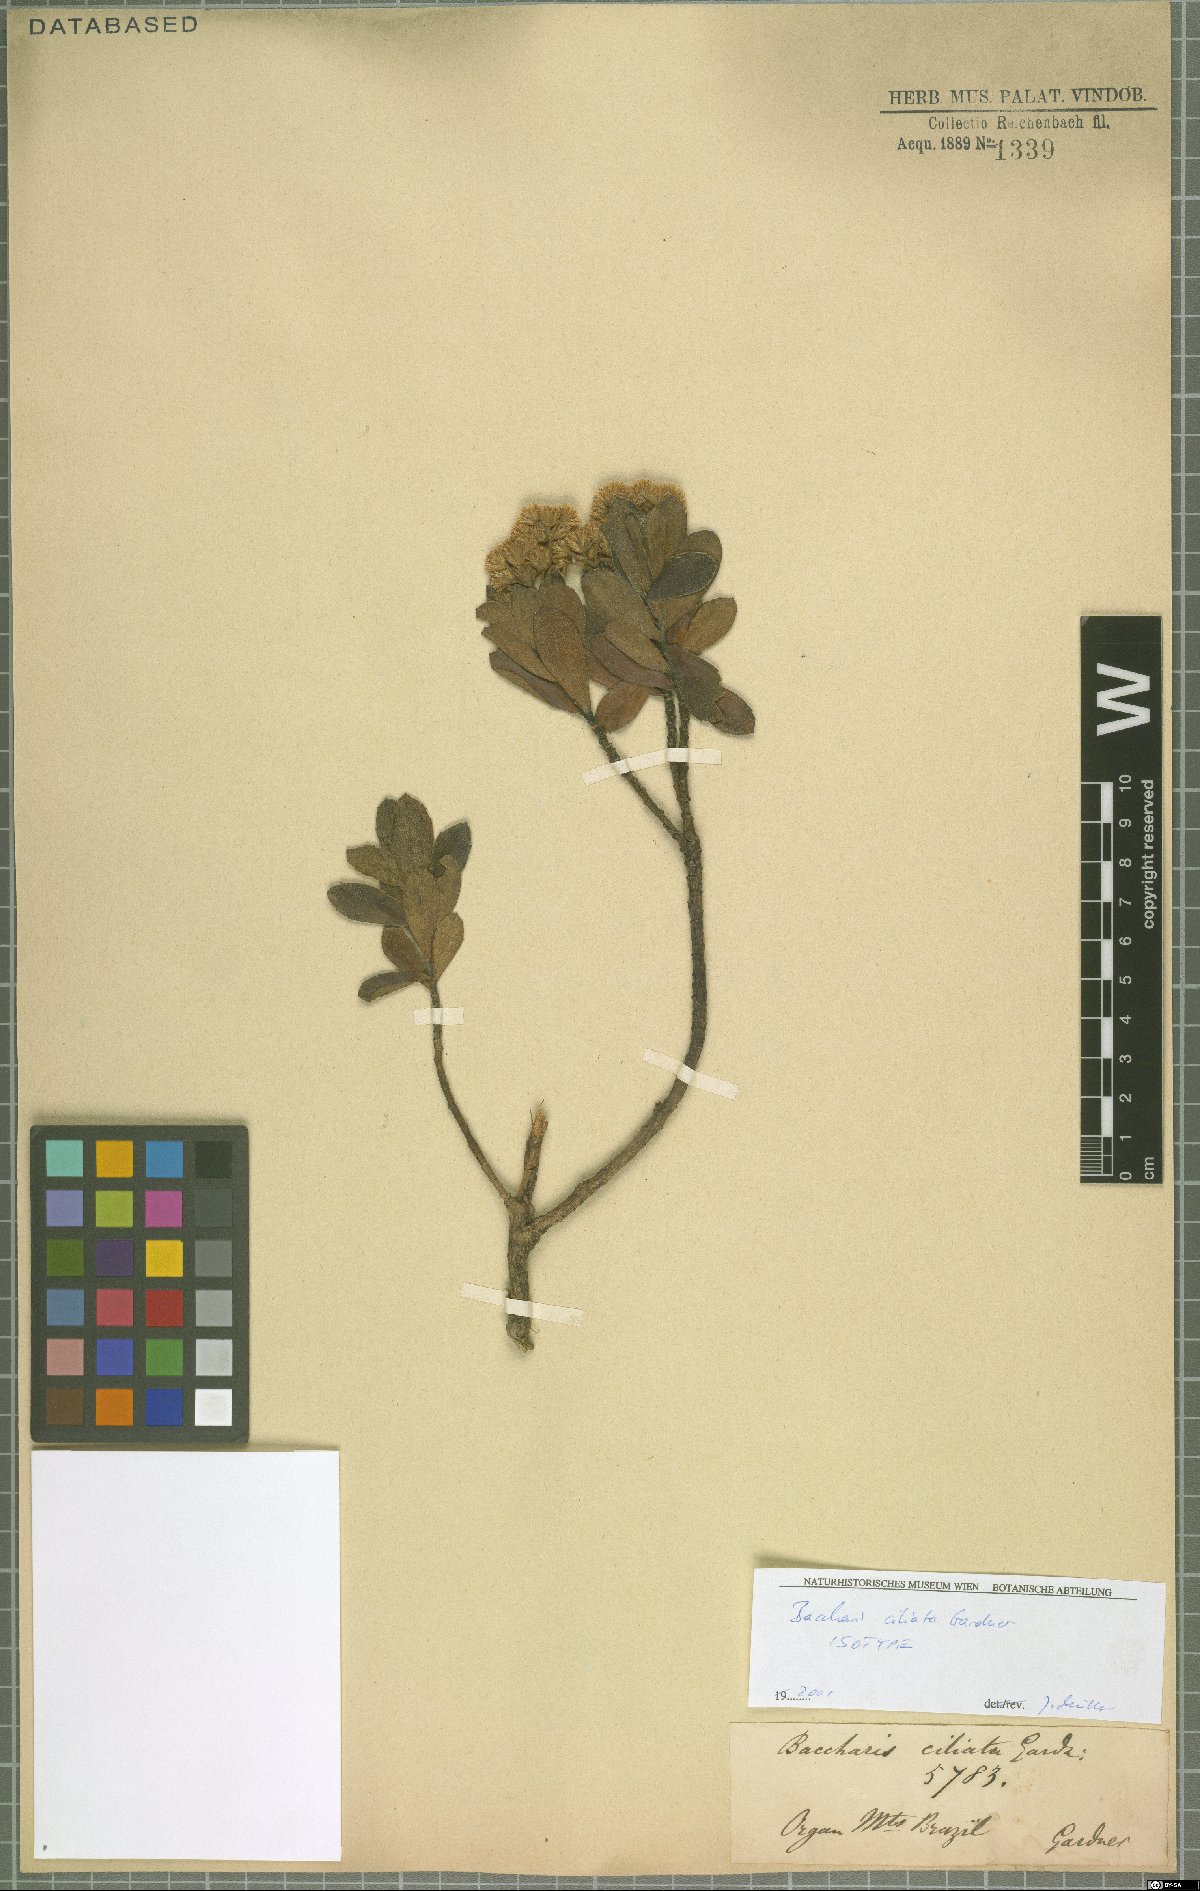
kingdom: Plantae
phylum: Tracheophyta
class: Magnoliopsida
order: Asterales
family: Asteraceae
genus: Baccharis
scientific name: Baccharis ciliata
